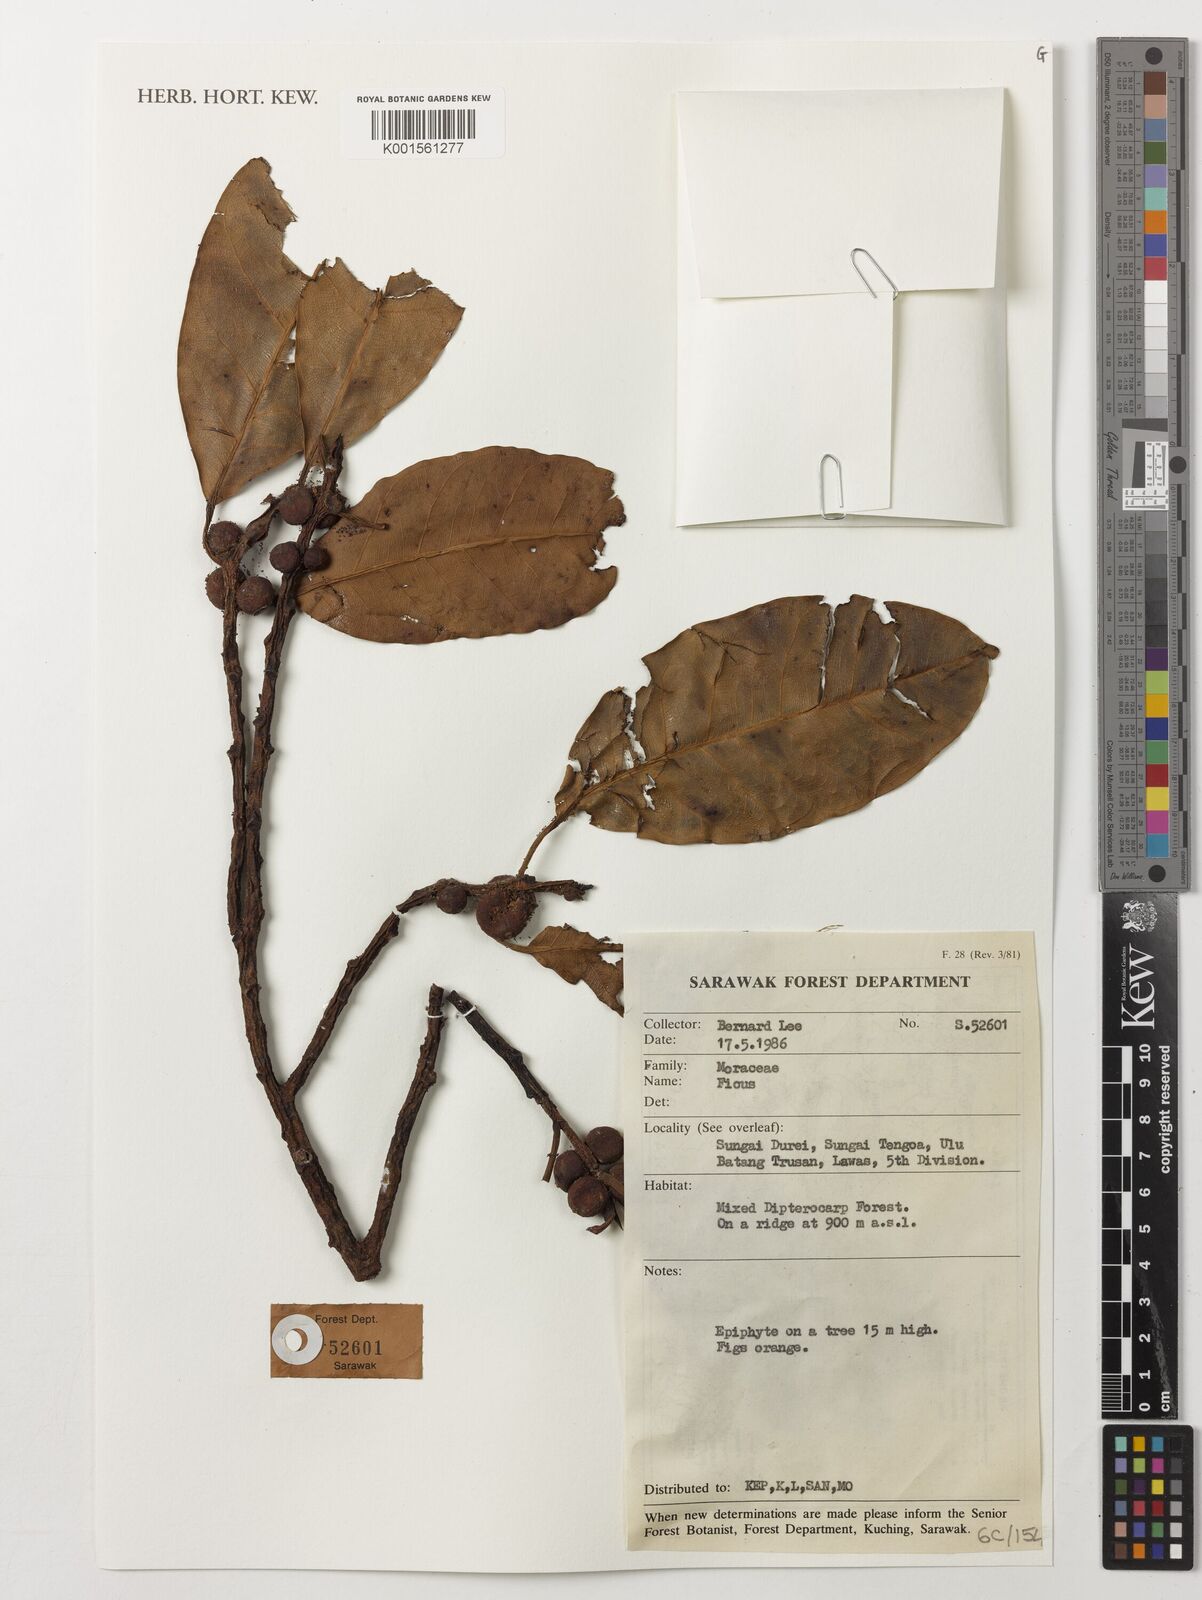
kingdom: Plantae
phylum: Tracheophyta
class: Magnoliopsida
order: Rosales
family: Moraceae
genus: Ficus
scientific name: Ficus
